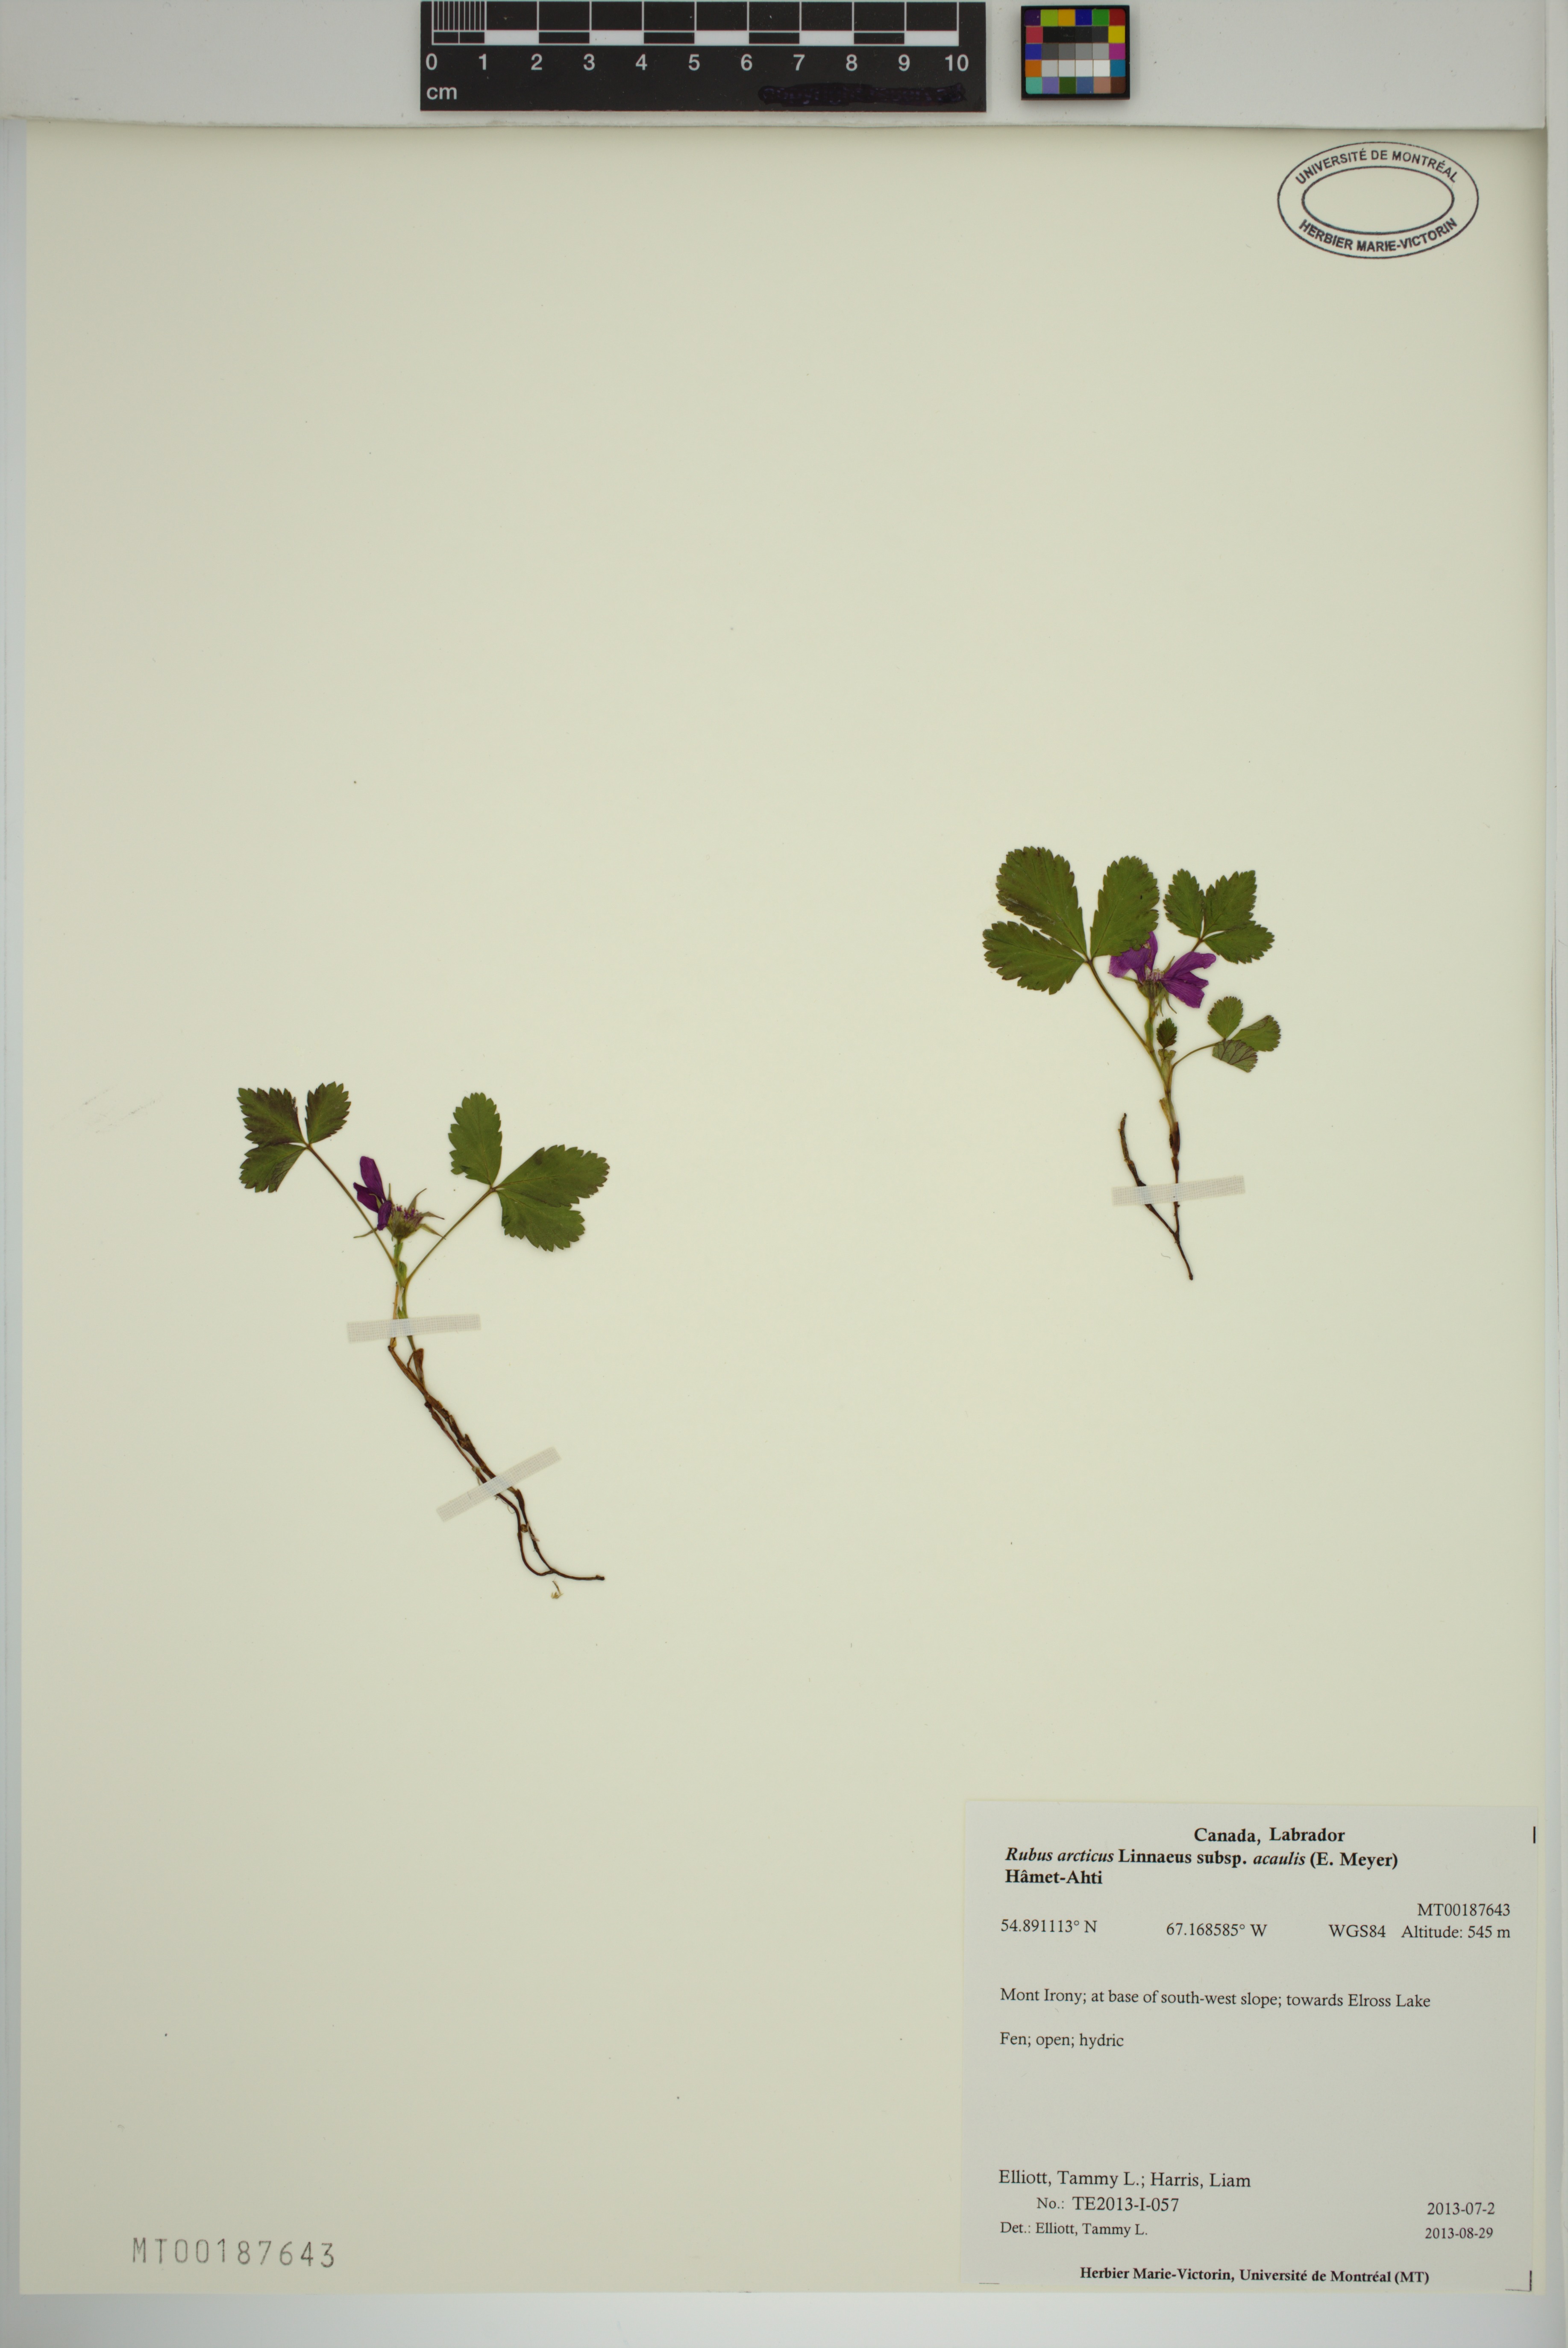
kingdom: Plantae
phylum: Tracheophyta
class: Magnoliopsida
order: Rosales
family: Rosaceae
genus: Rubus
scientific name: Rubus arcticus
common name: Arctic bramble
